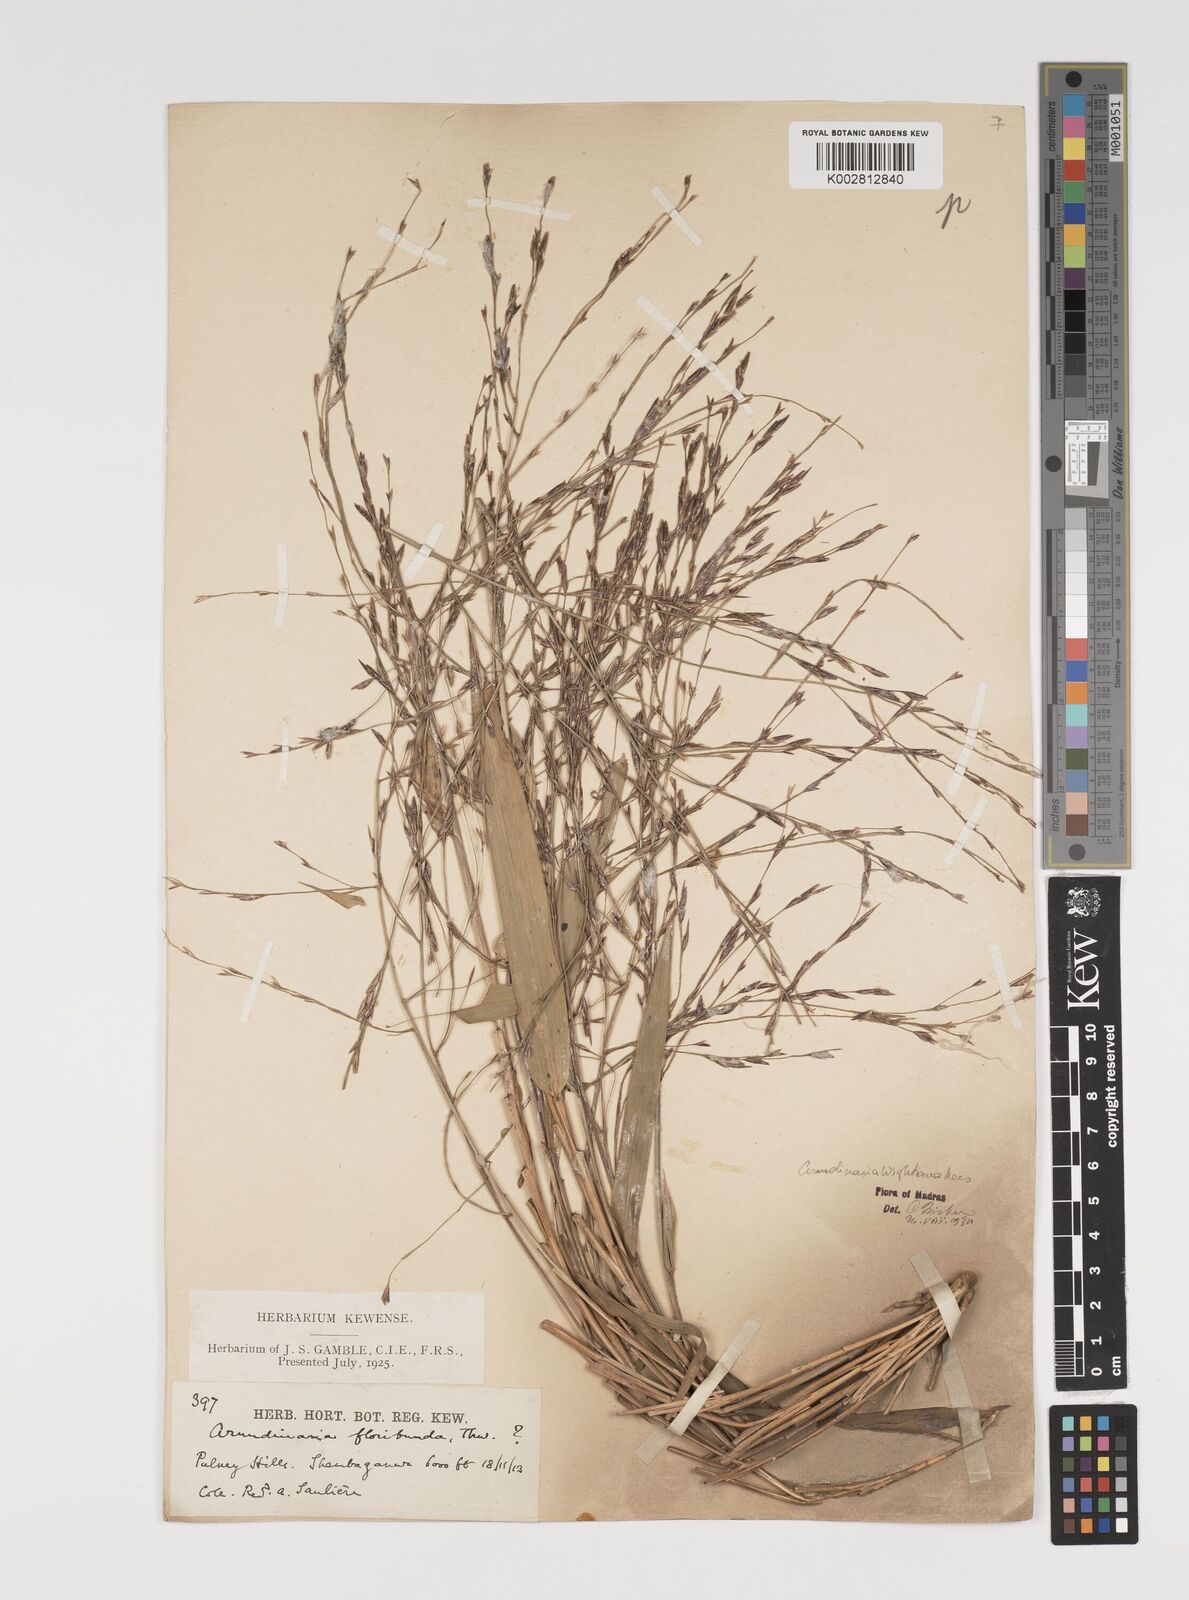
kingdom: Plantae
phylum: Tracheophyta
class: Liliopsida
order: Poales
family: Poaceae
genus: Kuruna
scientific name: Kuruna walkeriana
